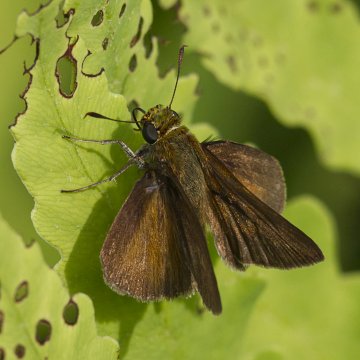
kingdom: Animalia
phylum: Arthropoda
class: Insecta
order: Lepidoptera
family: Hesperiidae
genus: Euphyes
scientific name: Euphyes vestris
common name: Dun Skipper
